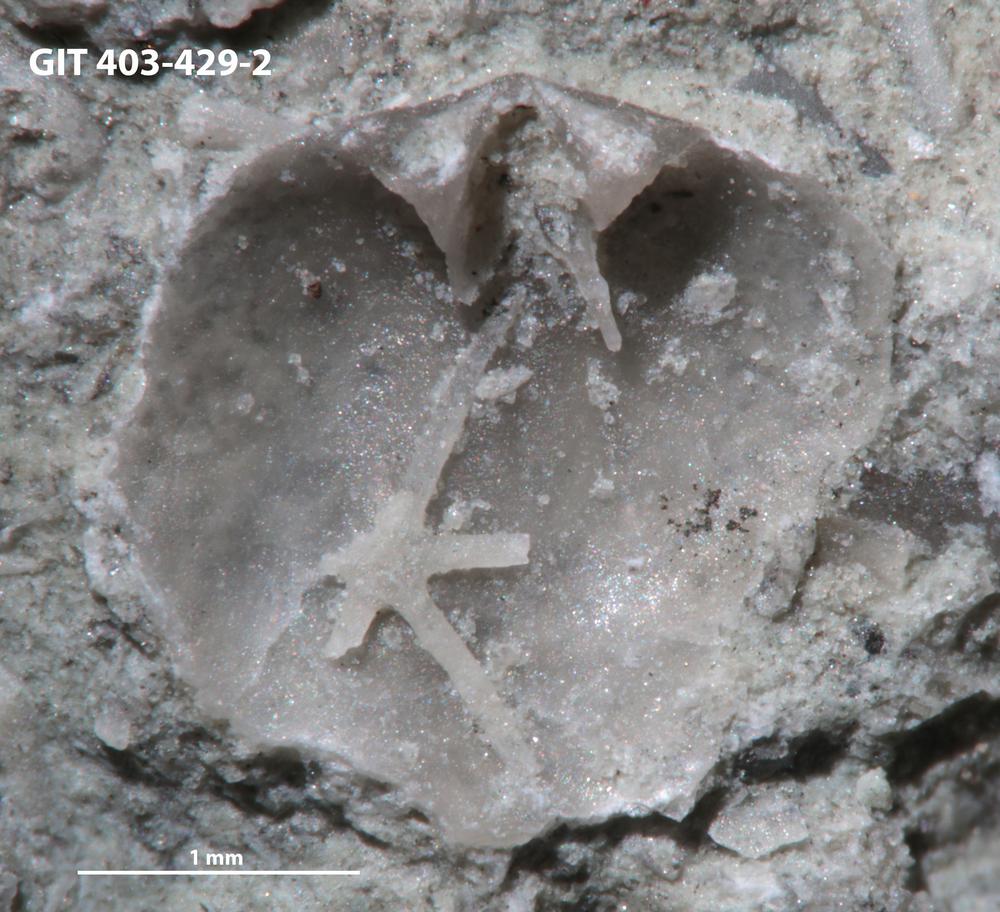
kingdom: Animalia
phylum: Porifera
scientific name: Porifera
